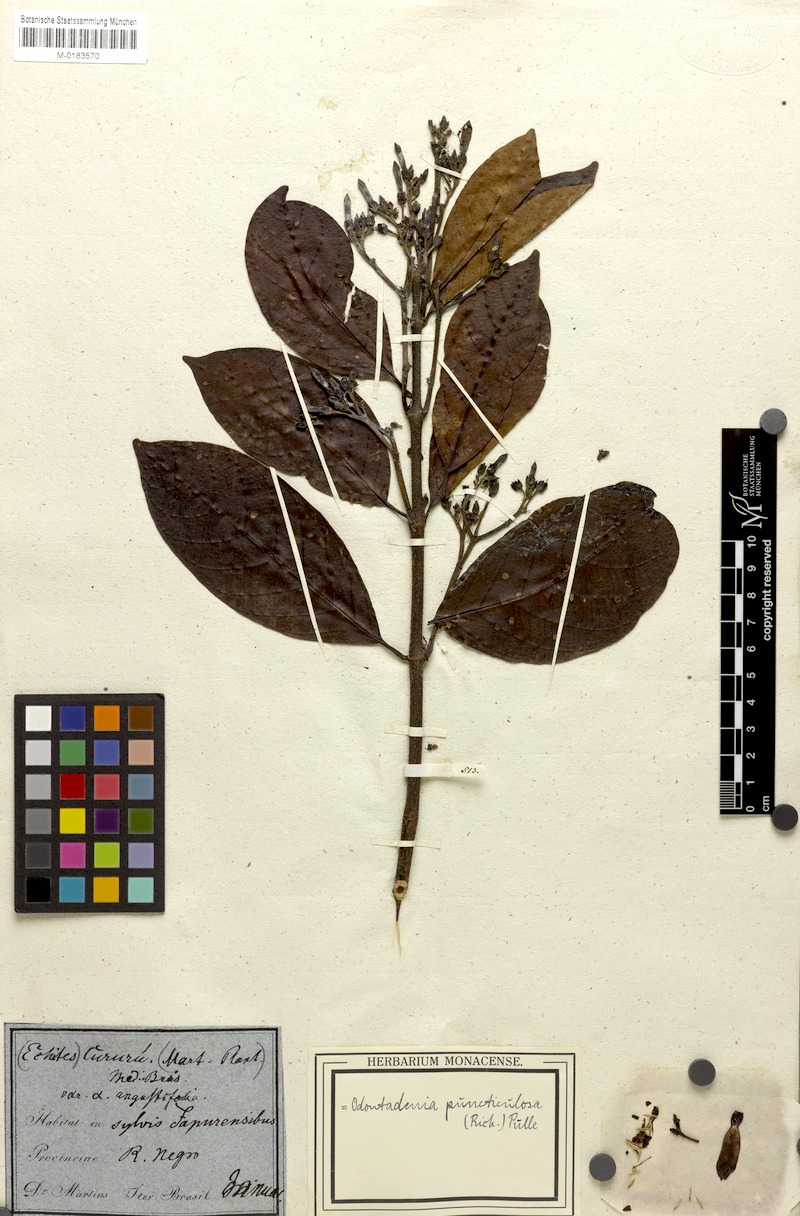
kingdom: Plantae
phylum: Tracheophyta
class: Magnoliopsida
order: Gentianales
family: Apocynaceae
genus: Odontadenia
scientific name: Odontadenia puncticulosa
